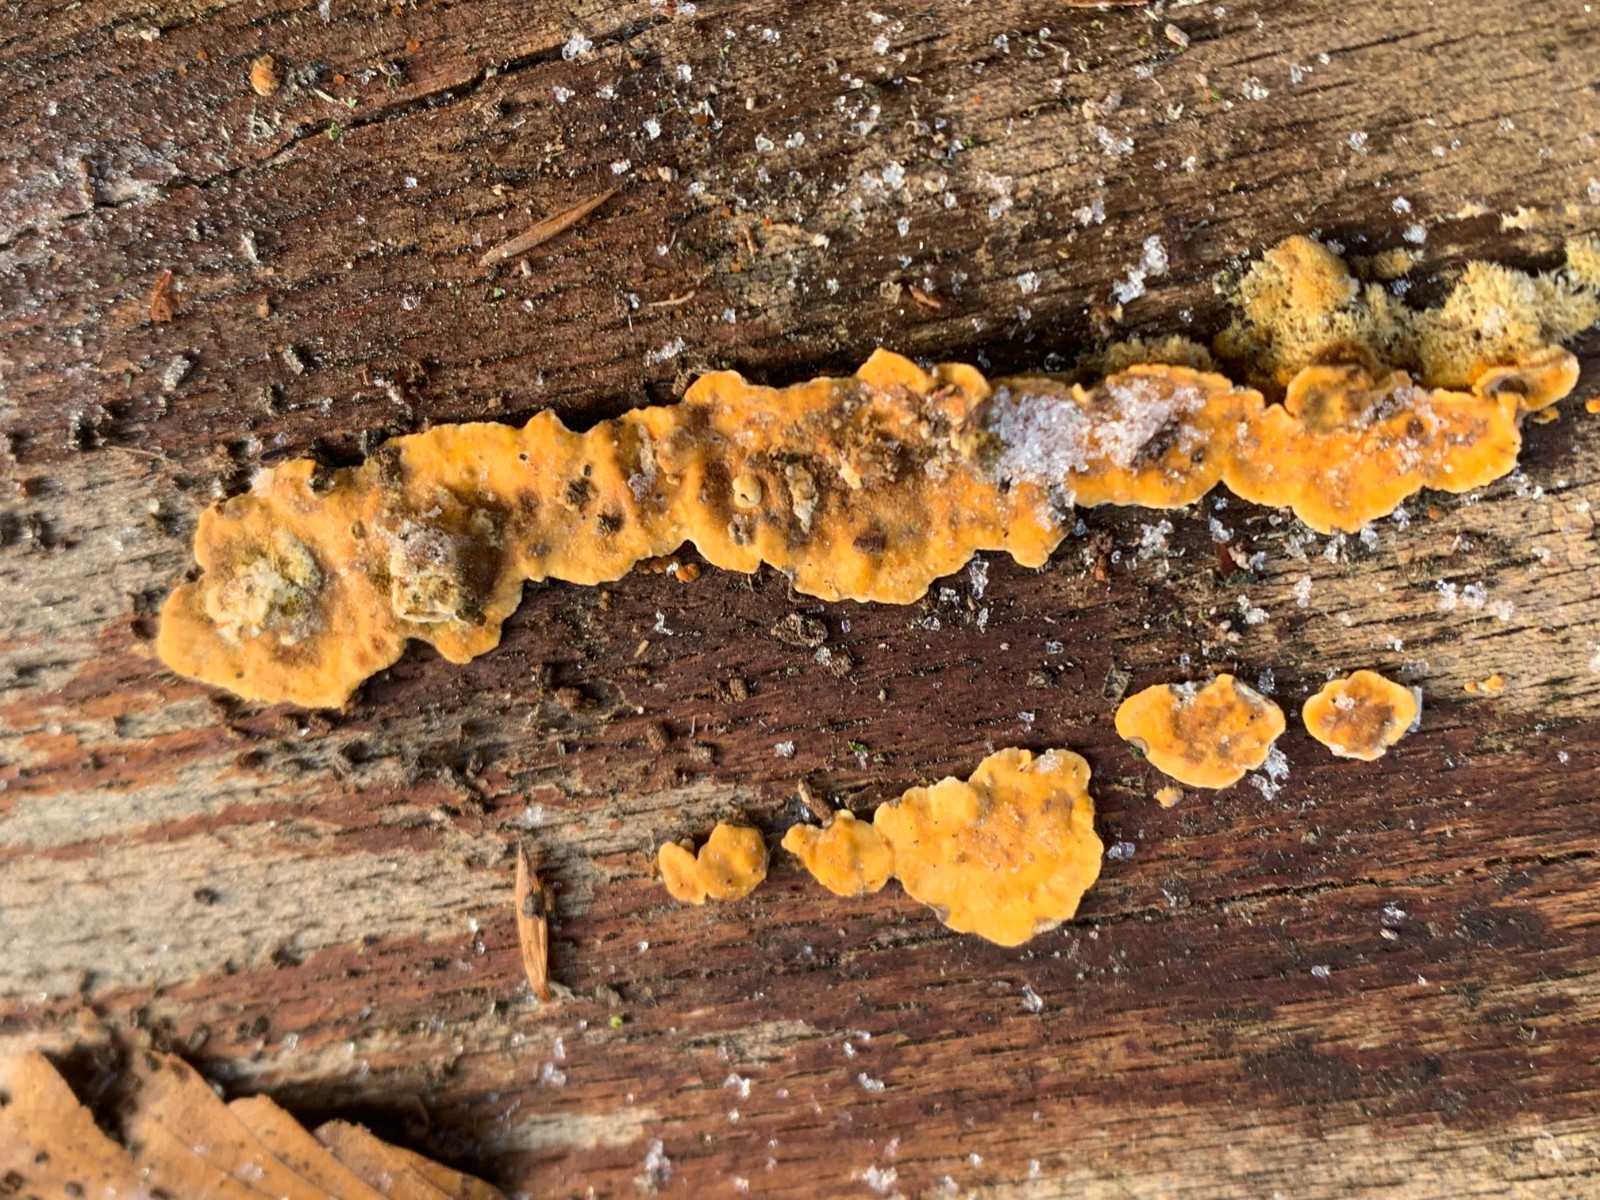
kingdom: Fungi
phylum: Basidiomycota
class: Agaricomycetes
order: Russulales
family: Stereaceae
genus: Stereum
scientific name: Stereum hirsutum
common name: håret lædersvamp
